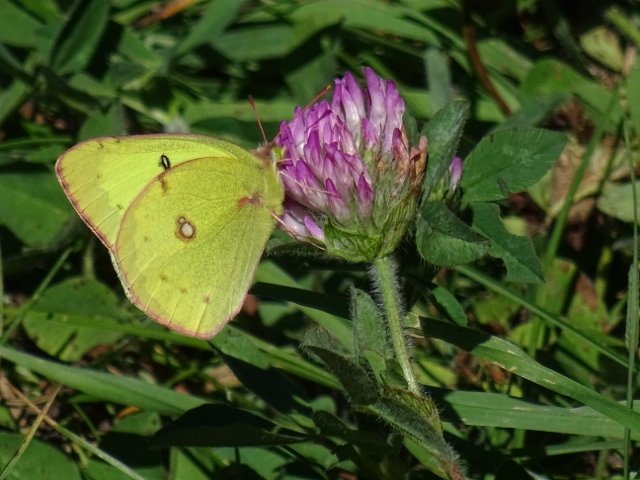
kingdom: Animalia
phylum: Arthropoda
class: Insecta
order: Lepidoptera
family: Pieridae
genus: Colias
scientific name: Colias philodice
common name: Clouded Sulphur
